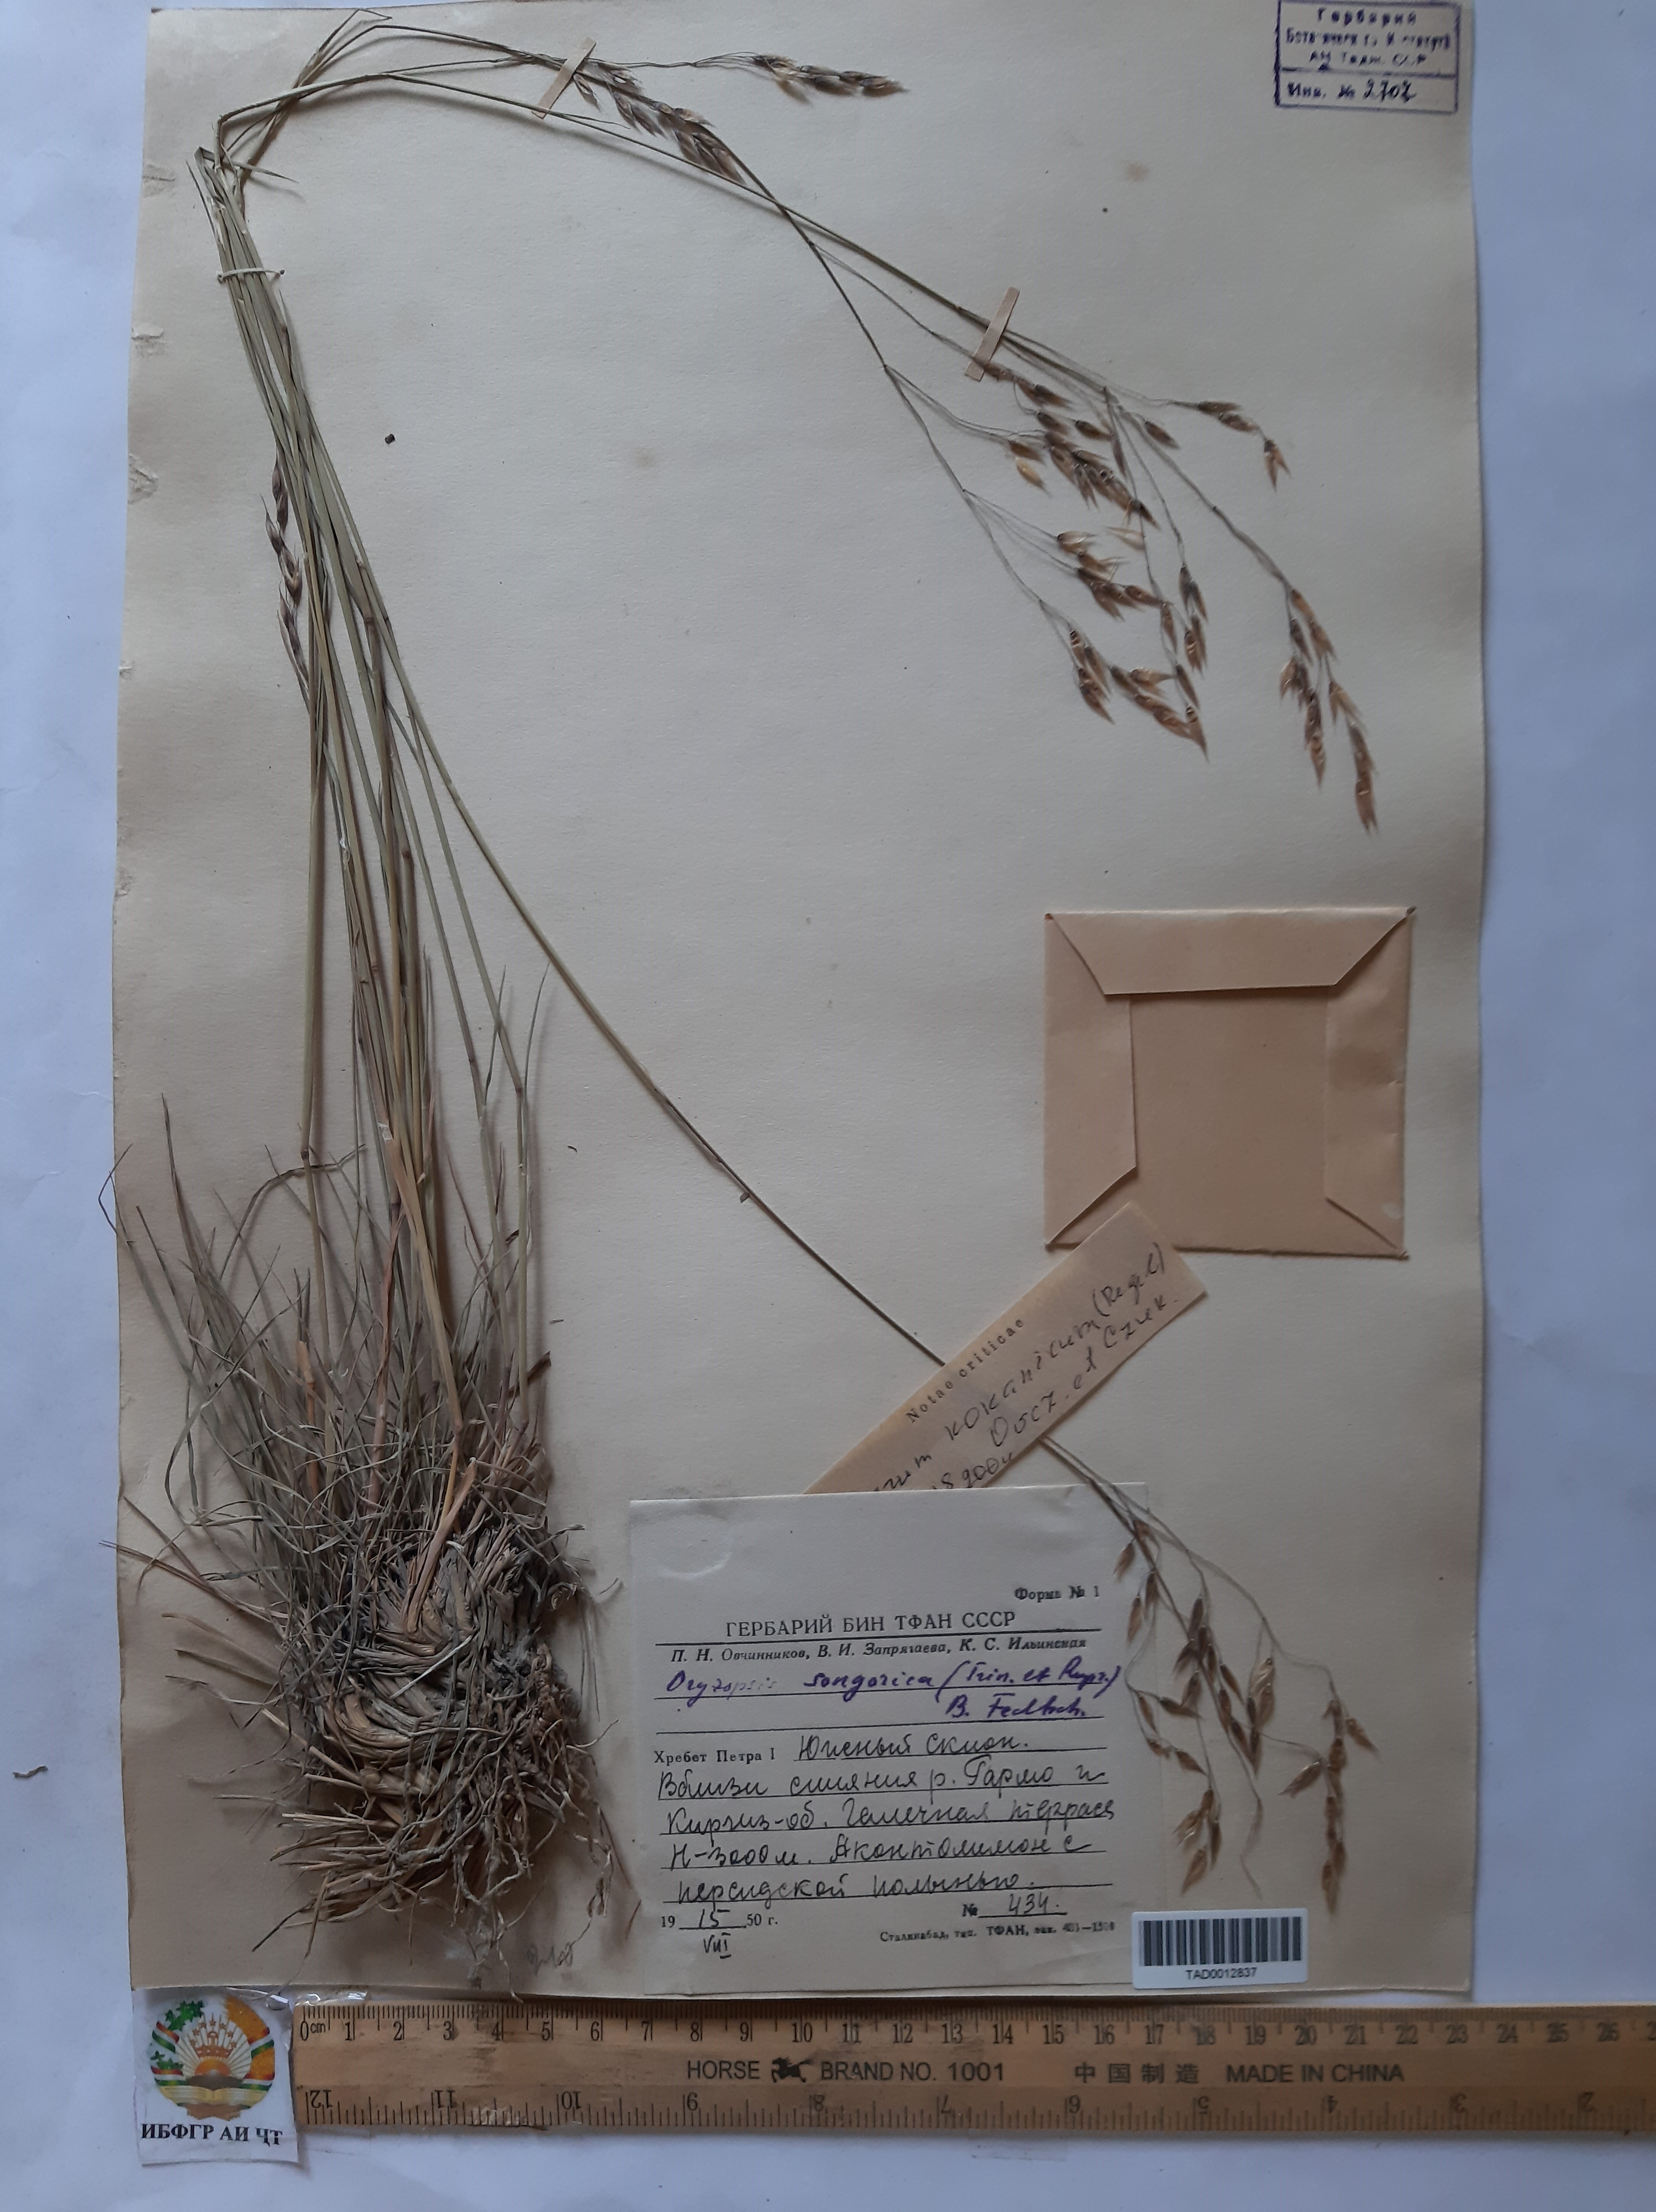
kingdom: Plantae
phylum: Tracheophyta
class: Liliopsida
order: Poales
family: Poaceae
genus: Piptatherum
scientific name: Piptatherum songaricum
